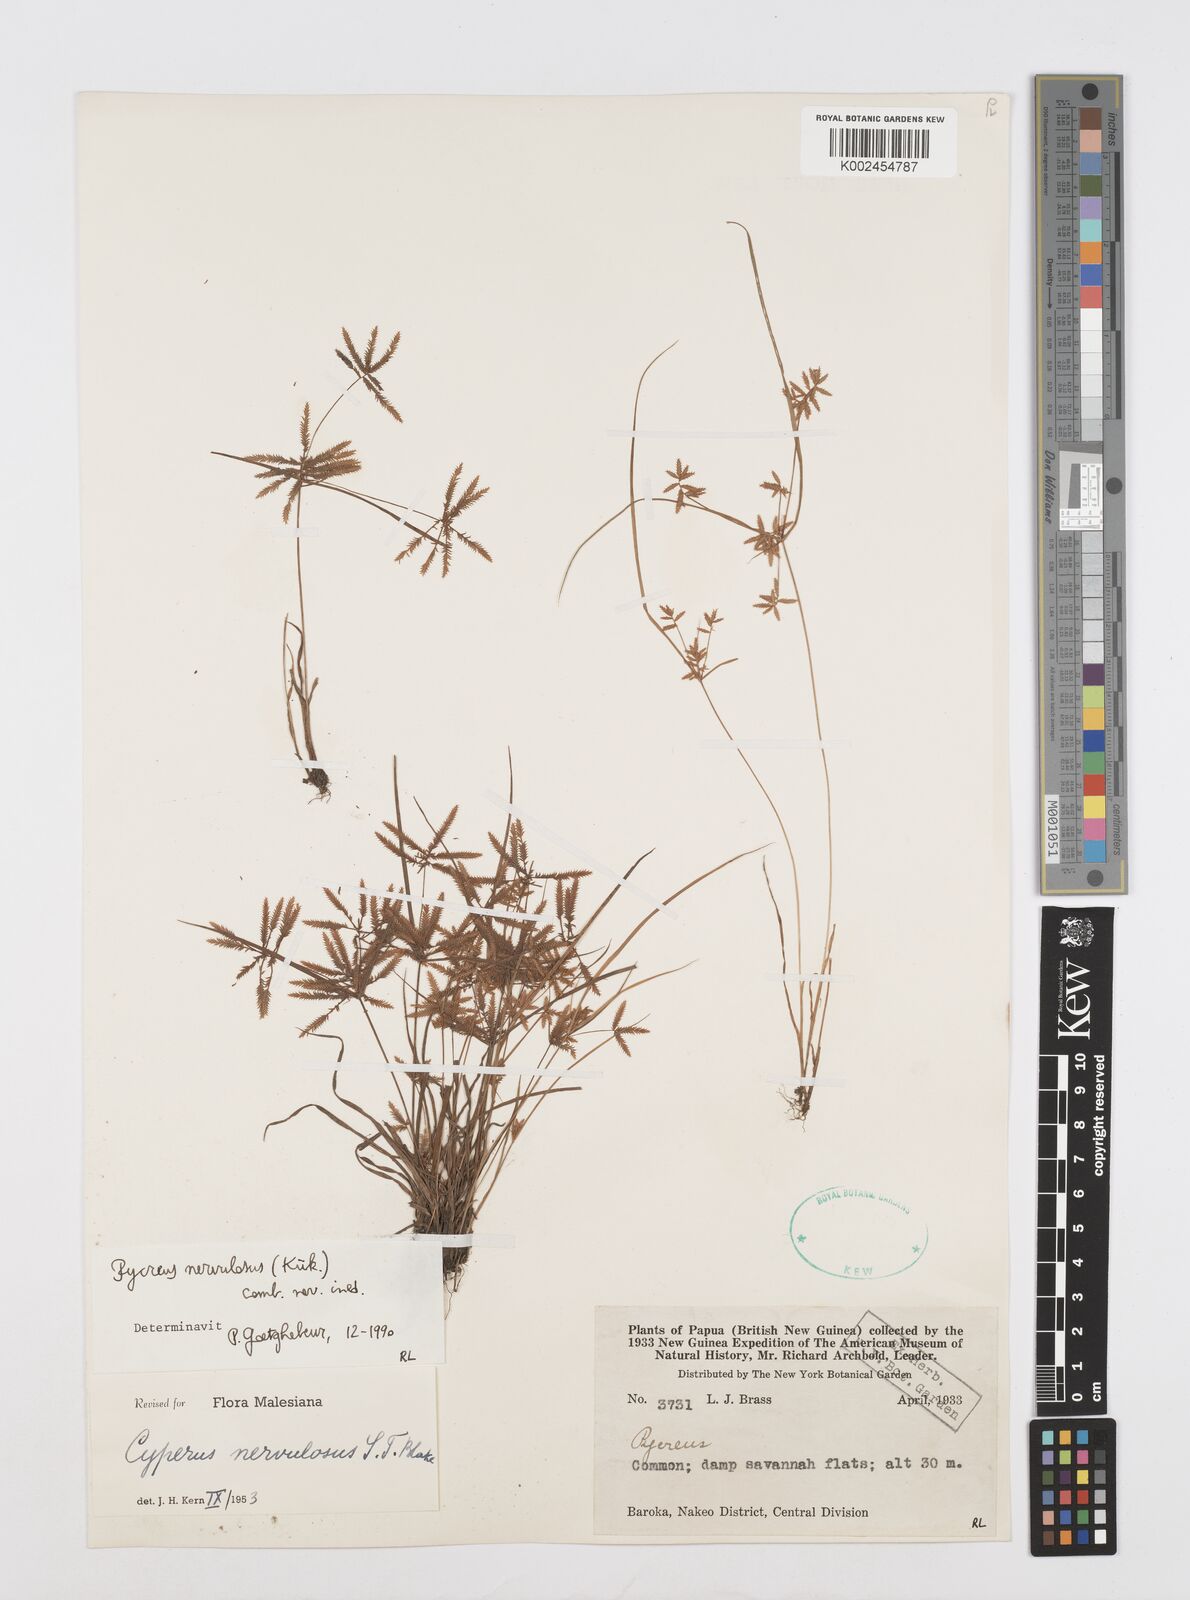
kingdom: Plantae
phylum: Tracheophyta
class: Liliopsida
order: Poales
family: Cyperaceae
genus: Cyperus
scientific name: Cyperus nervulosus
